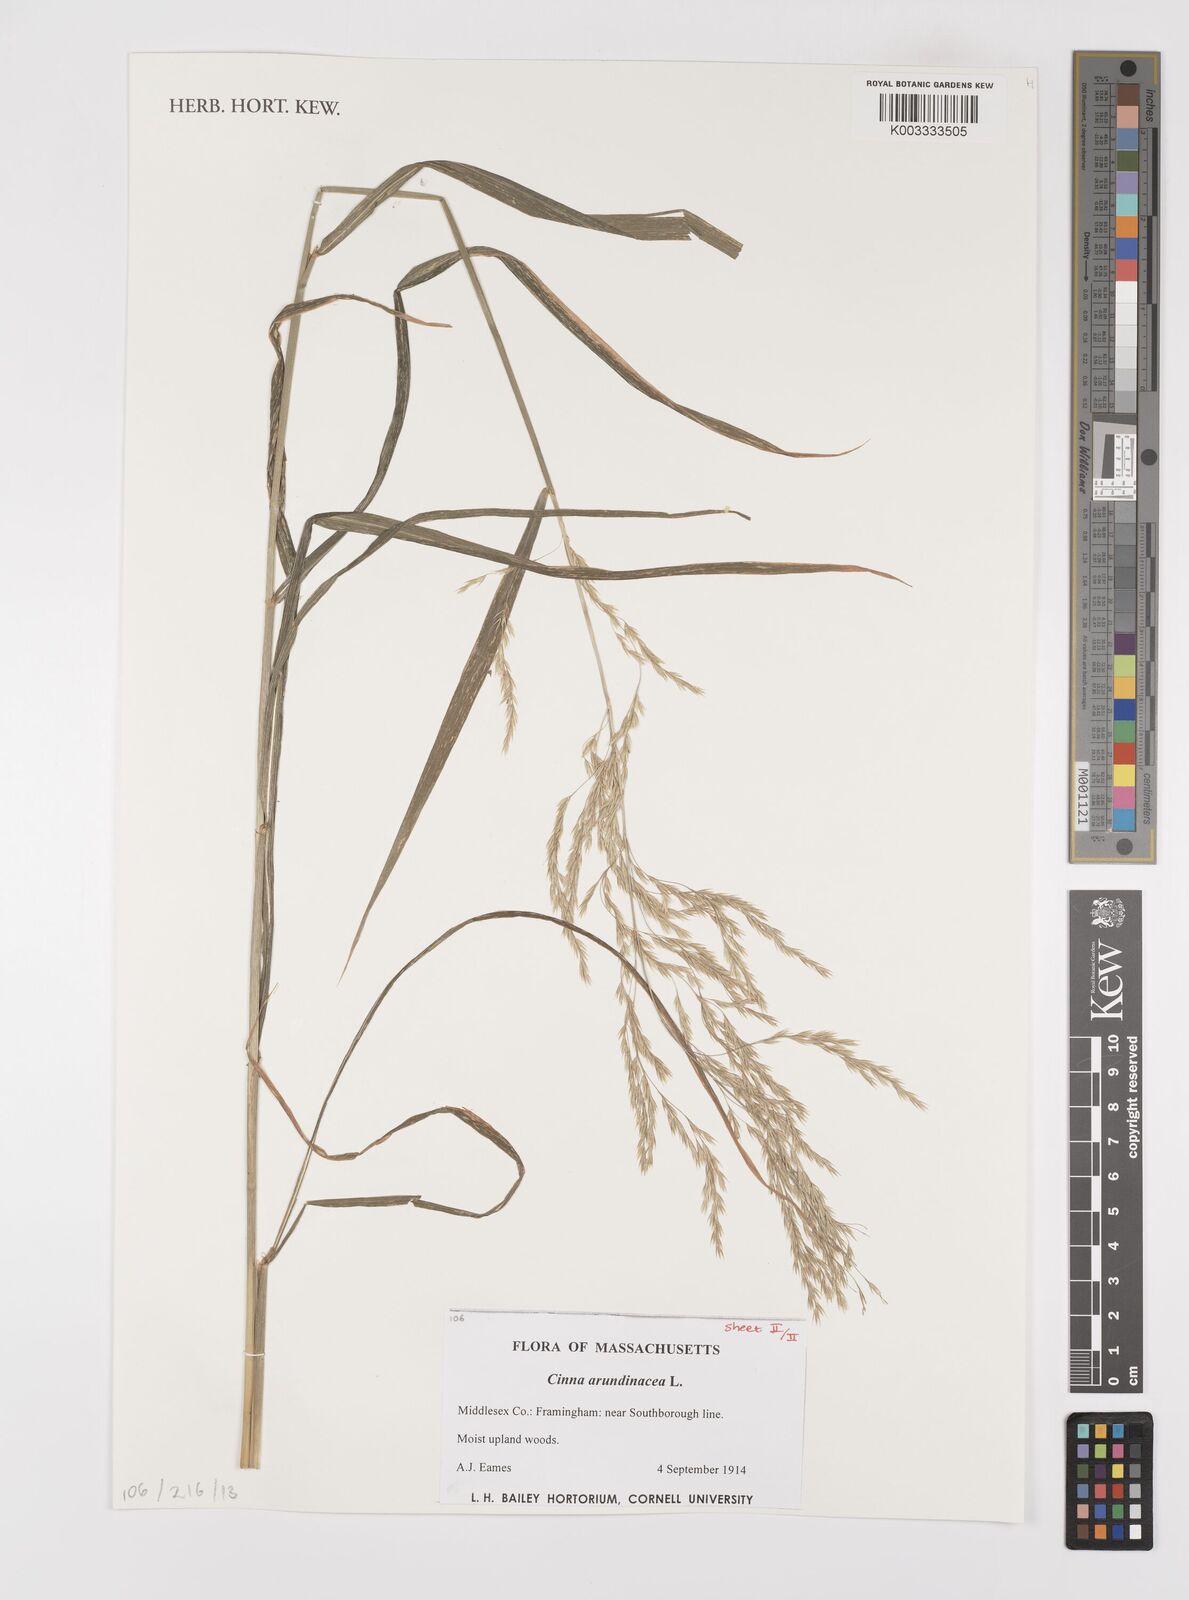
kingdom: Plantae
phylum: Tracheophyta
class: Liliopsida
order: Poales
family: Poaceae
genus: Cinna
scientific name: Cinna
